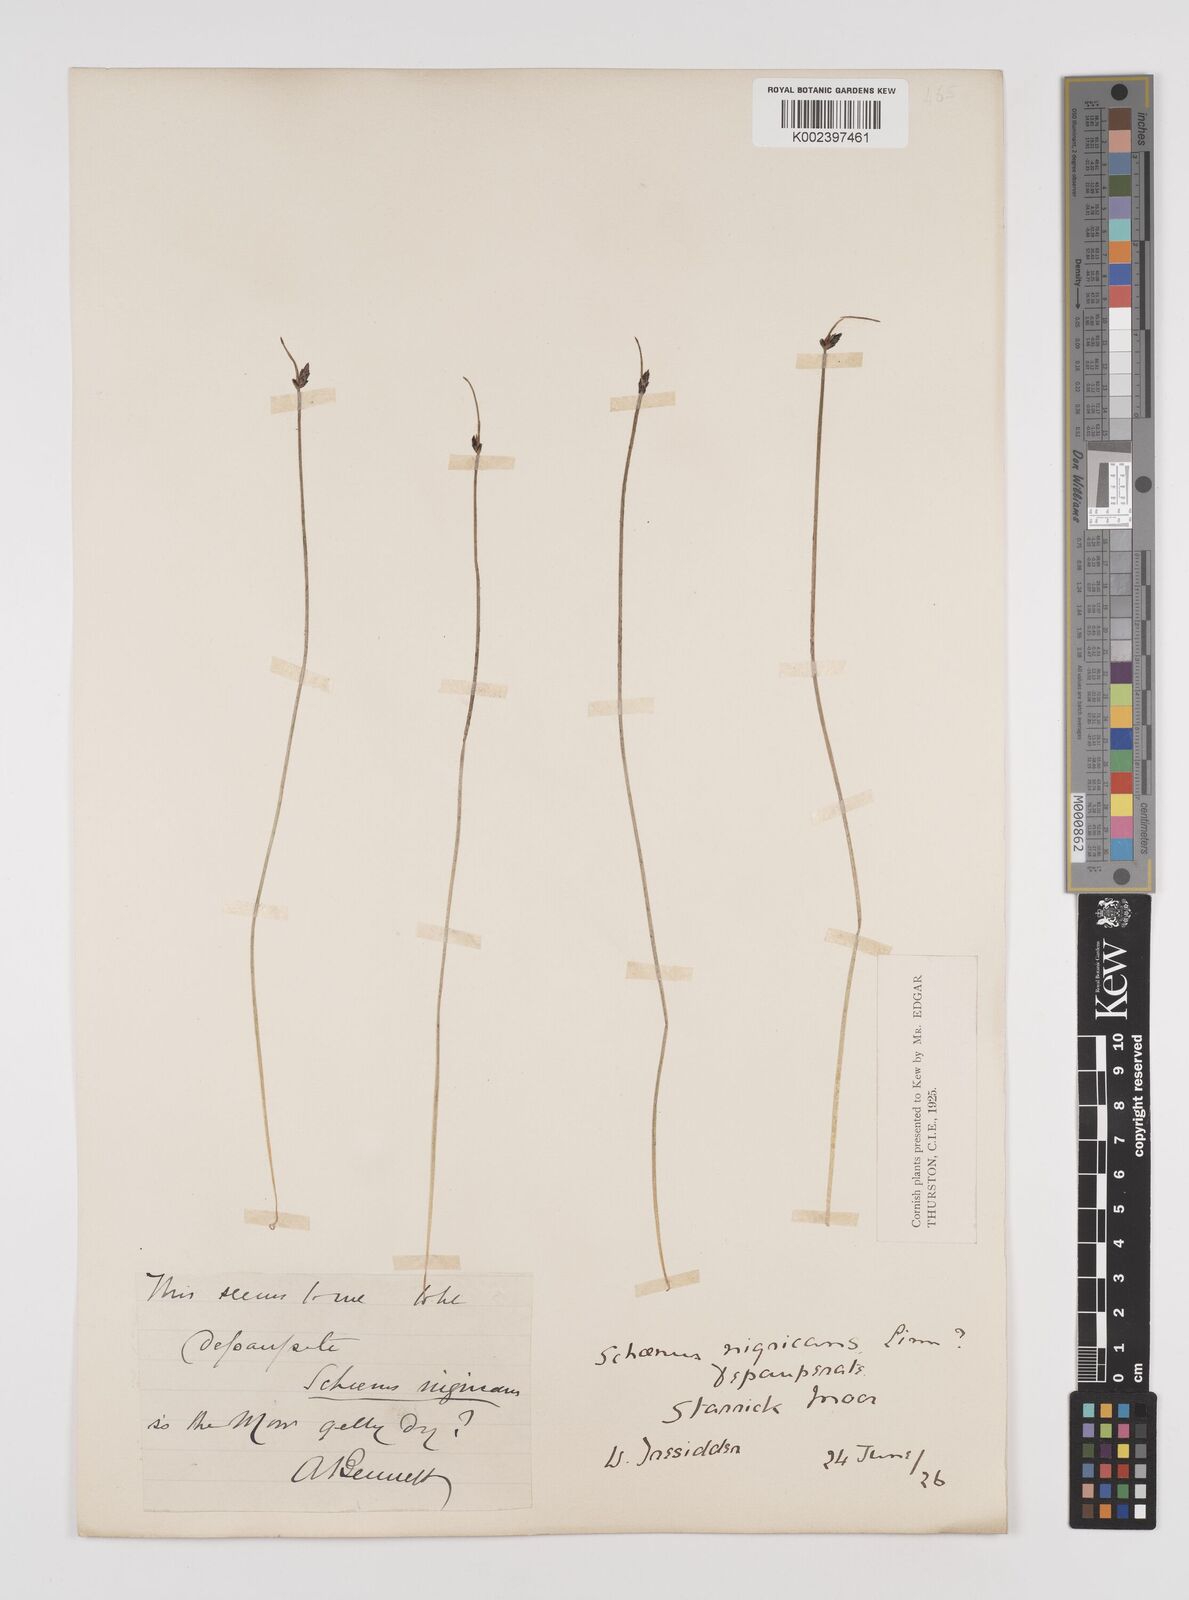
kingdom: Plantae
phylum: Tracheophyta
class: Liliopsida
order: Poales
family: Cyperaceae
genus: Schoenus
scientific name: Schoenus nigricans
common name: Black bog-rush
